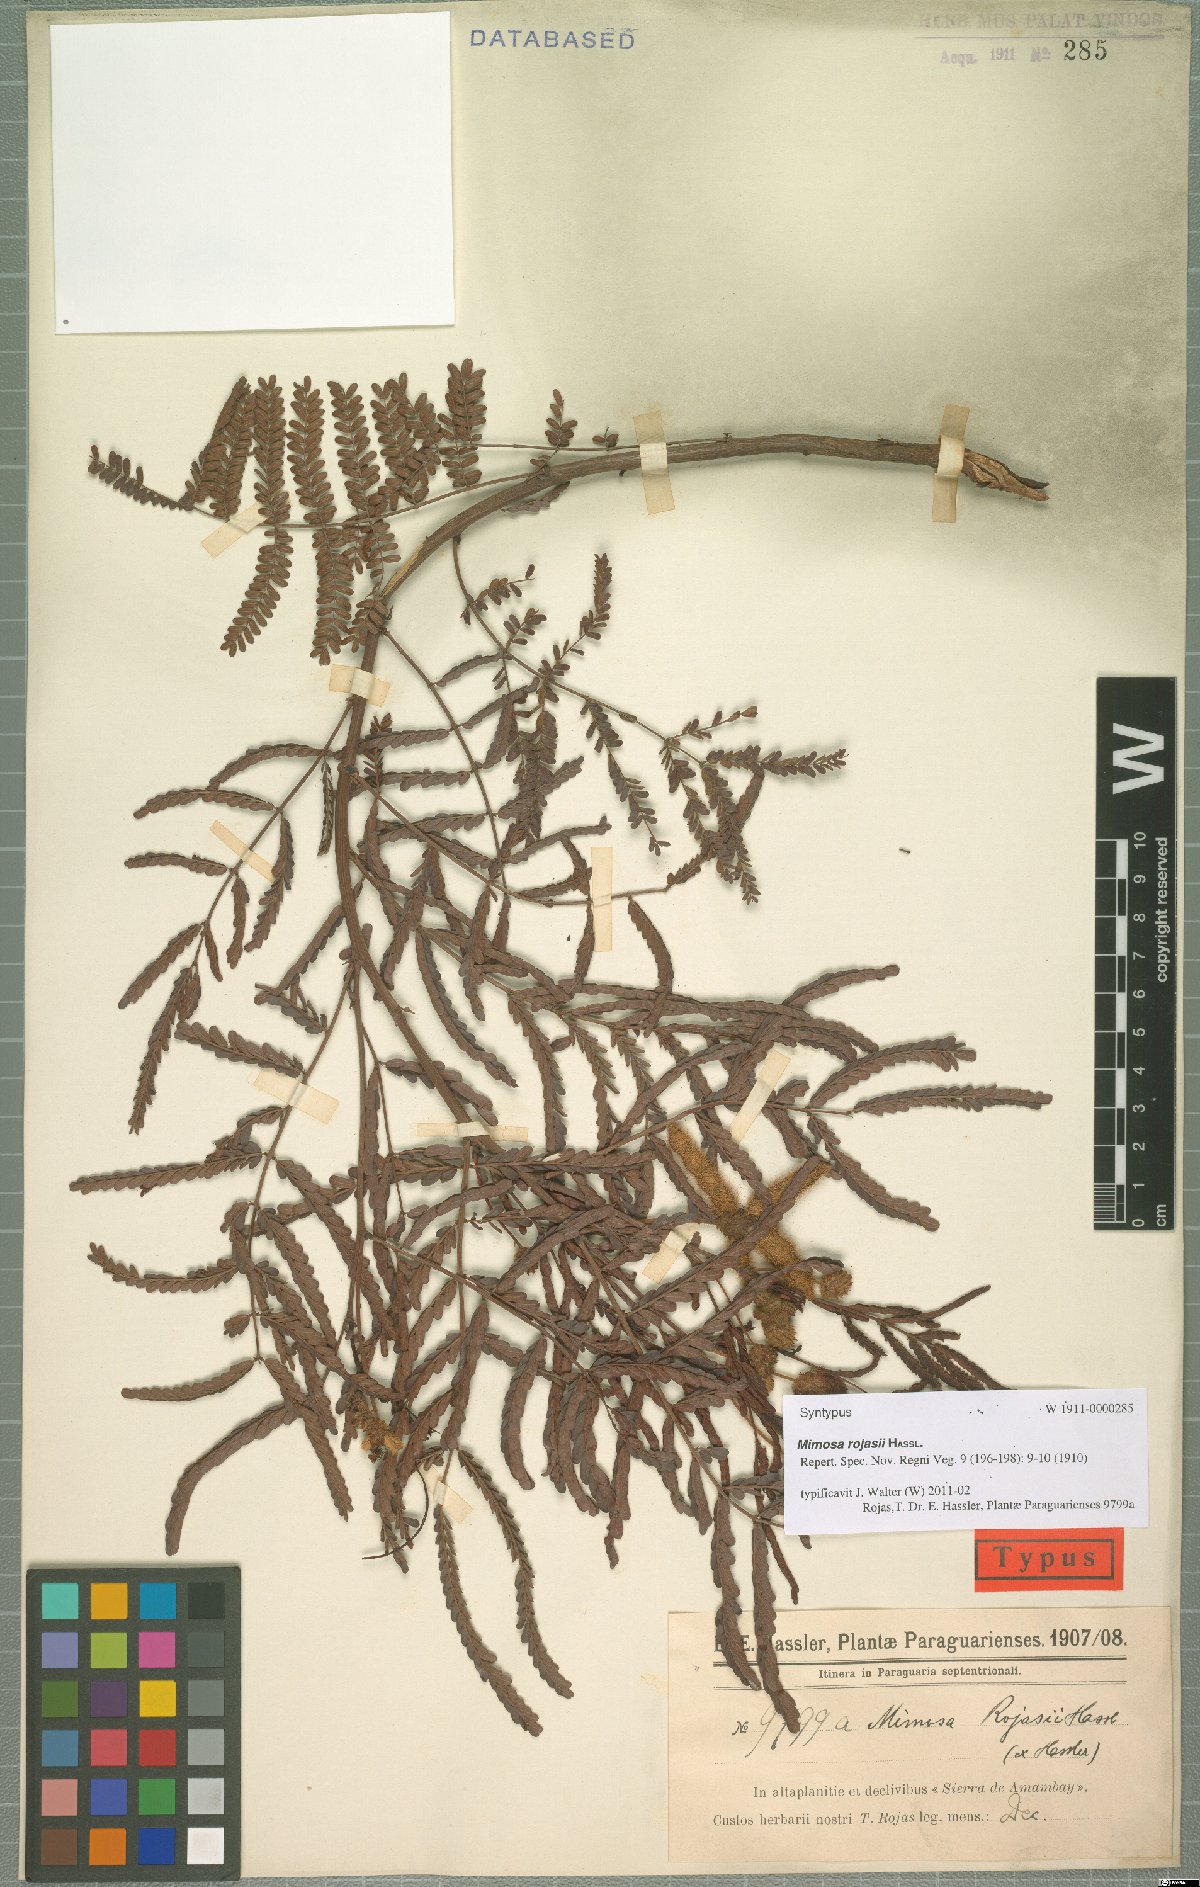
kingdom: Plantae
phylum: Tracheophyta
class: Magnoliopsida
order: Fabales
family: Fabaceae
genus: Mimosa
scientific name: Mimosa rojasii
